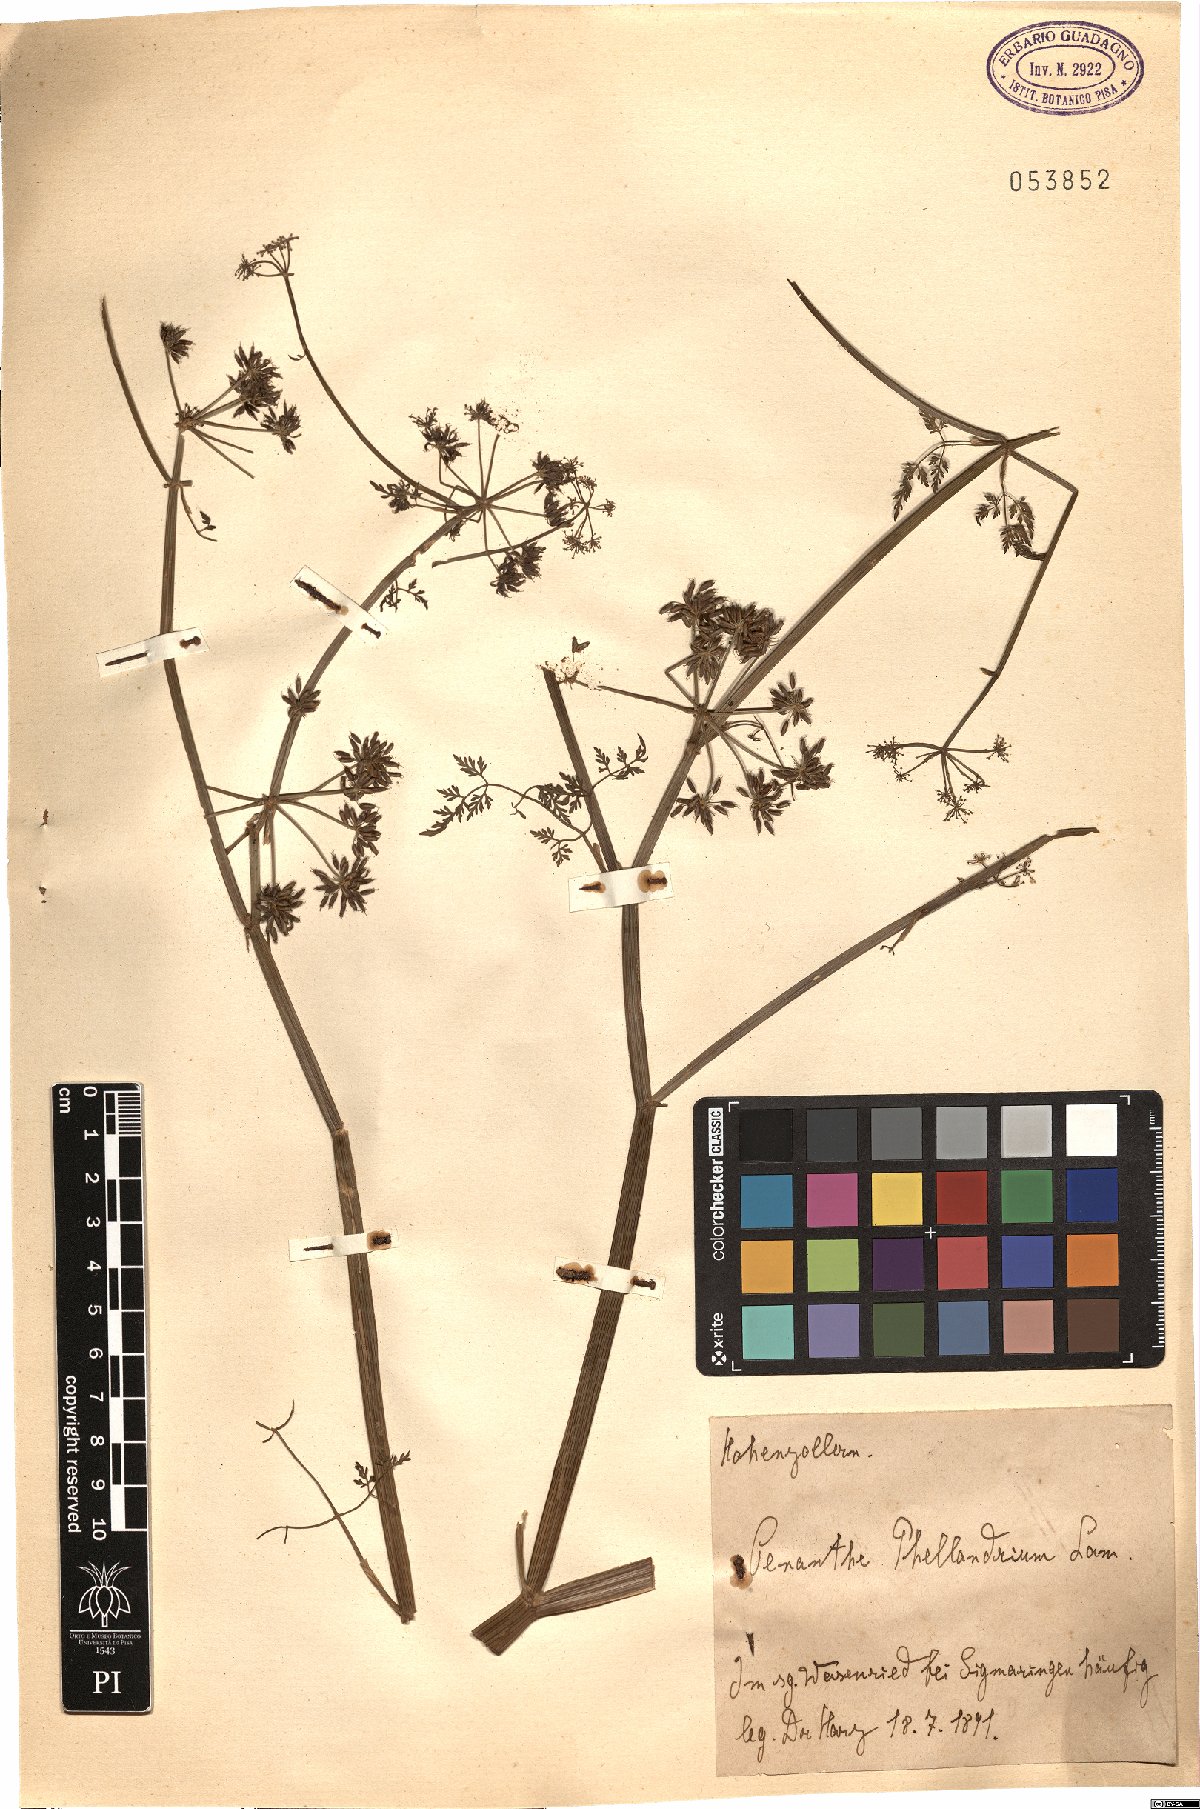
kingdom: Plantae
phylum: Tracheophyta
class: Magnoliopsida
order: Apiales
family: Apiaceae
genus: Oenanthe
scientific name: Oenanthe aquatica
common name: Fine-leaved water-dropwort
